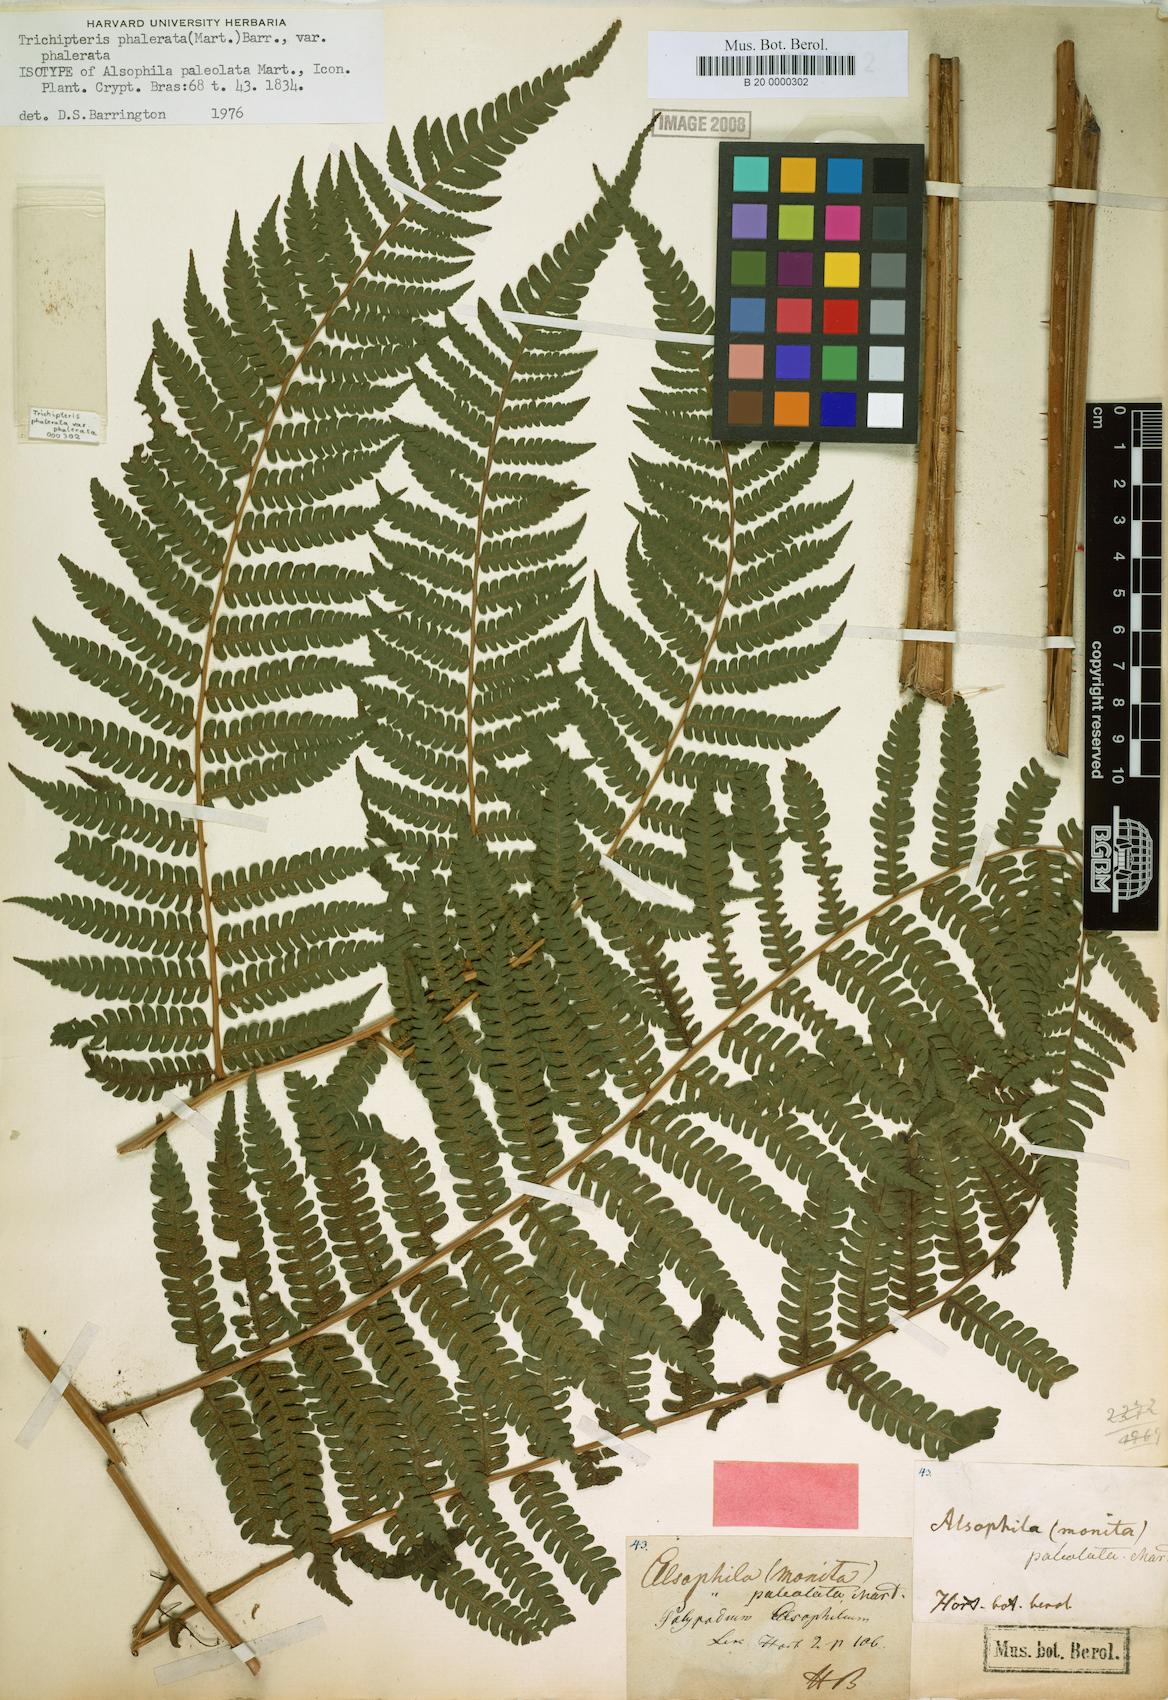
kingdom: Plantae
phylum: Tracheophyta
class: Polypodiopsida
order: Cyatheales
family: Cyatheaceae
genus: Cyathea
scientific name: Cyathea phalerata
